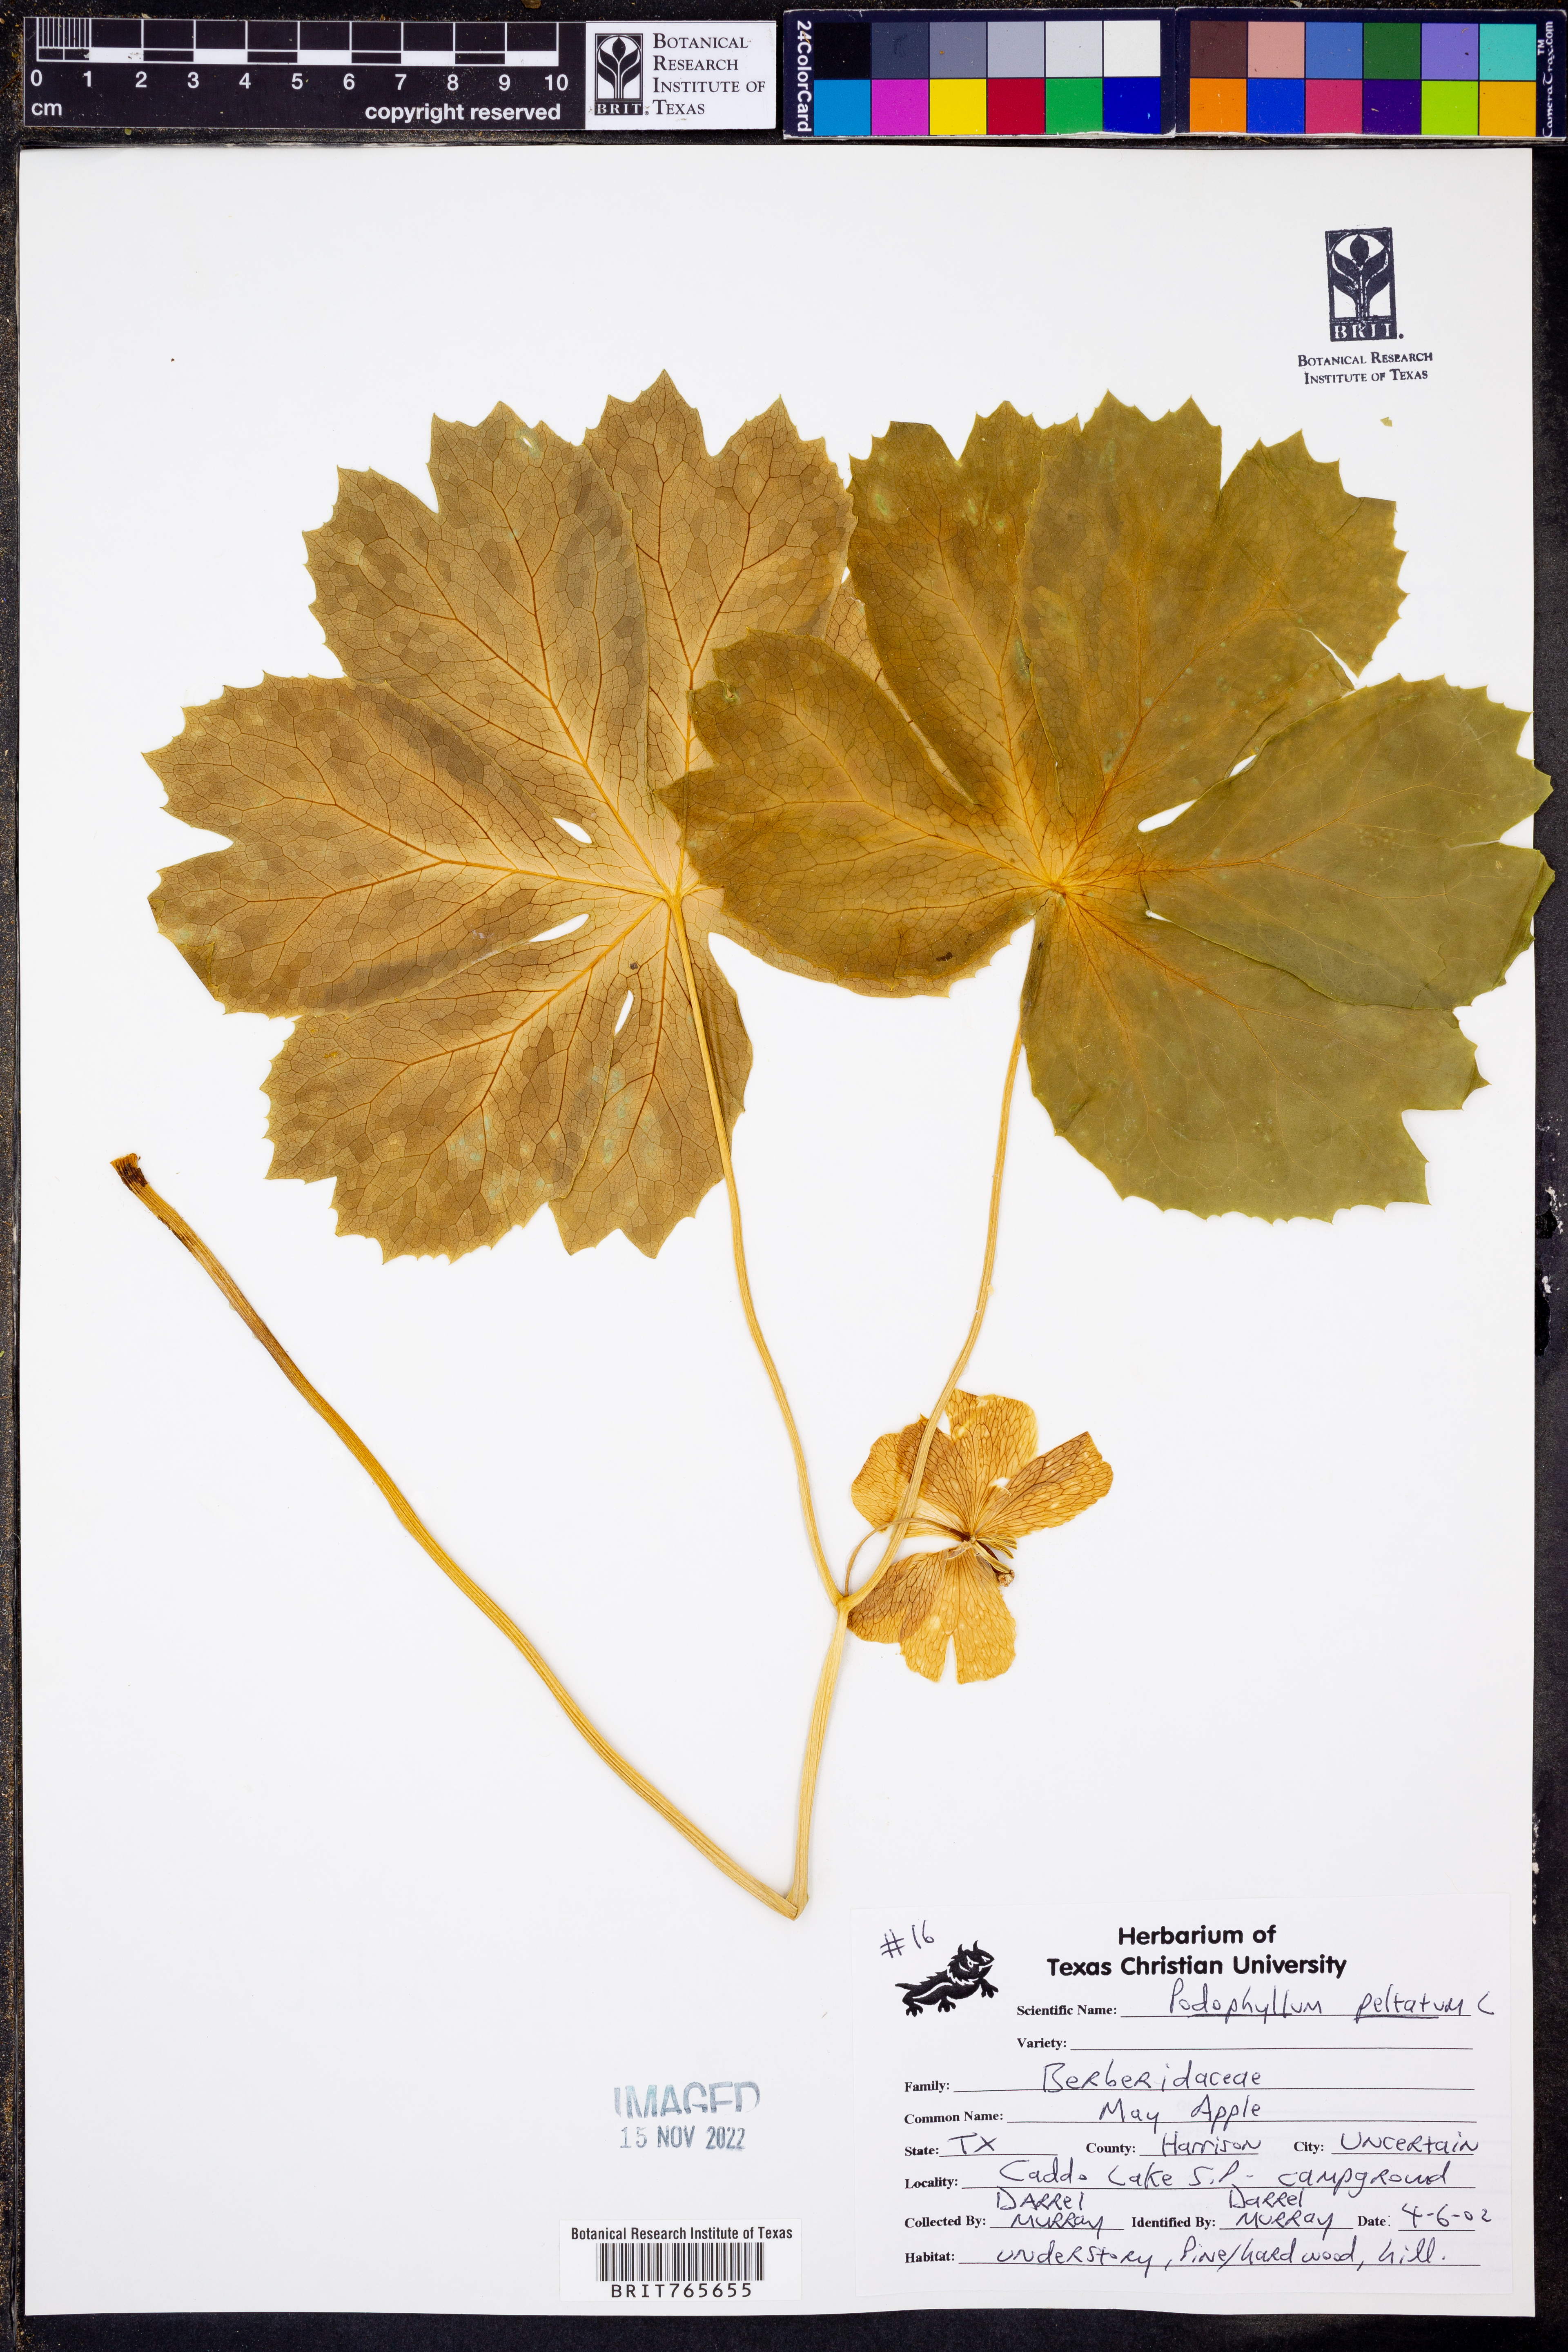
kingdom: Plantae
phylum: Tracheophyta
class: Magnoliopsida
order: Ranunculales
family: Berberidaceae
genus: Podophyllum
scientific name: Podophyllum peltatum
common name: Wild mandrake
